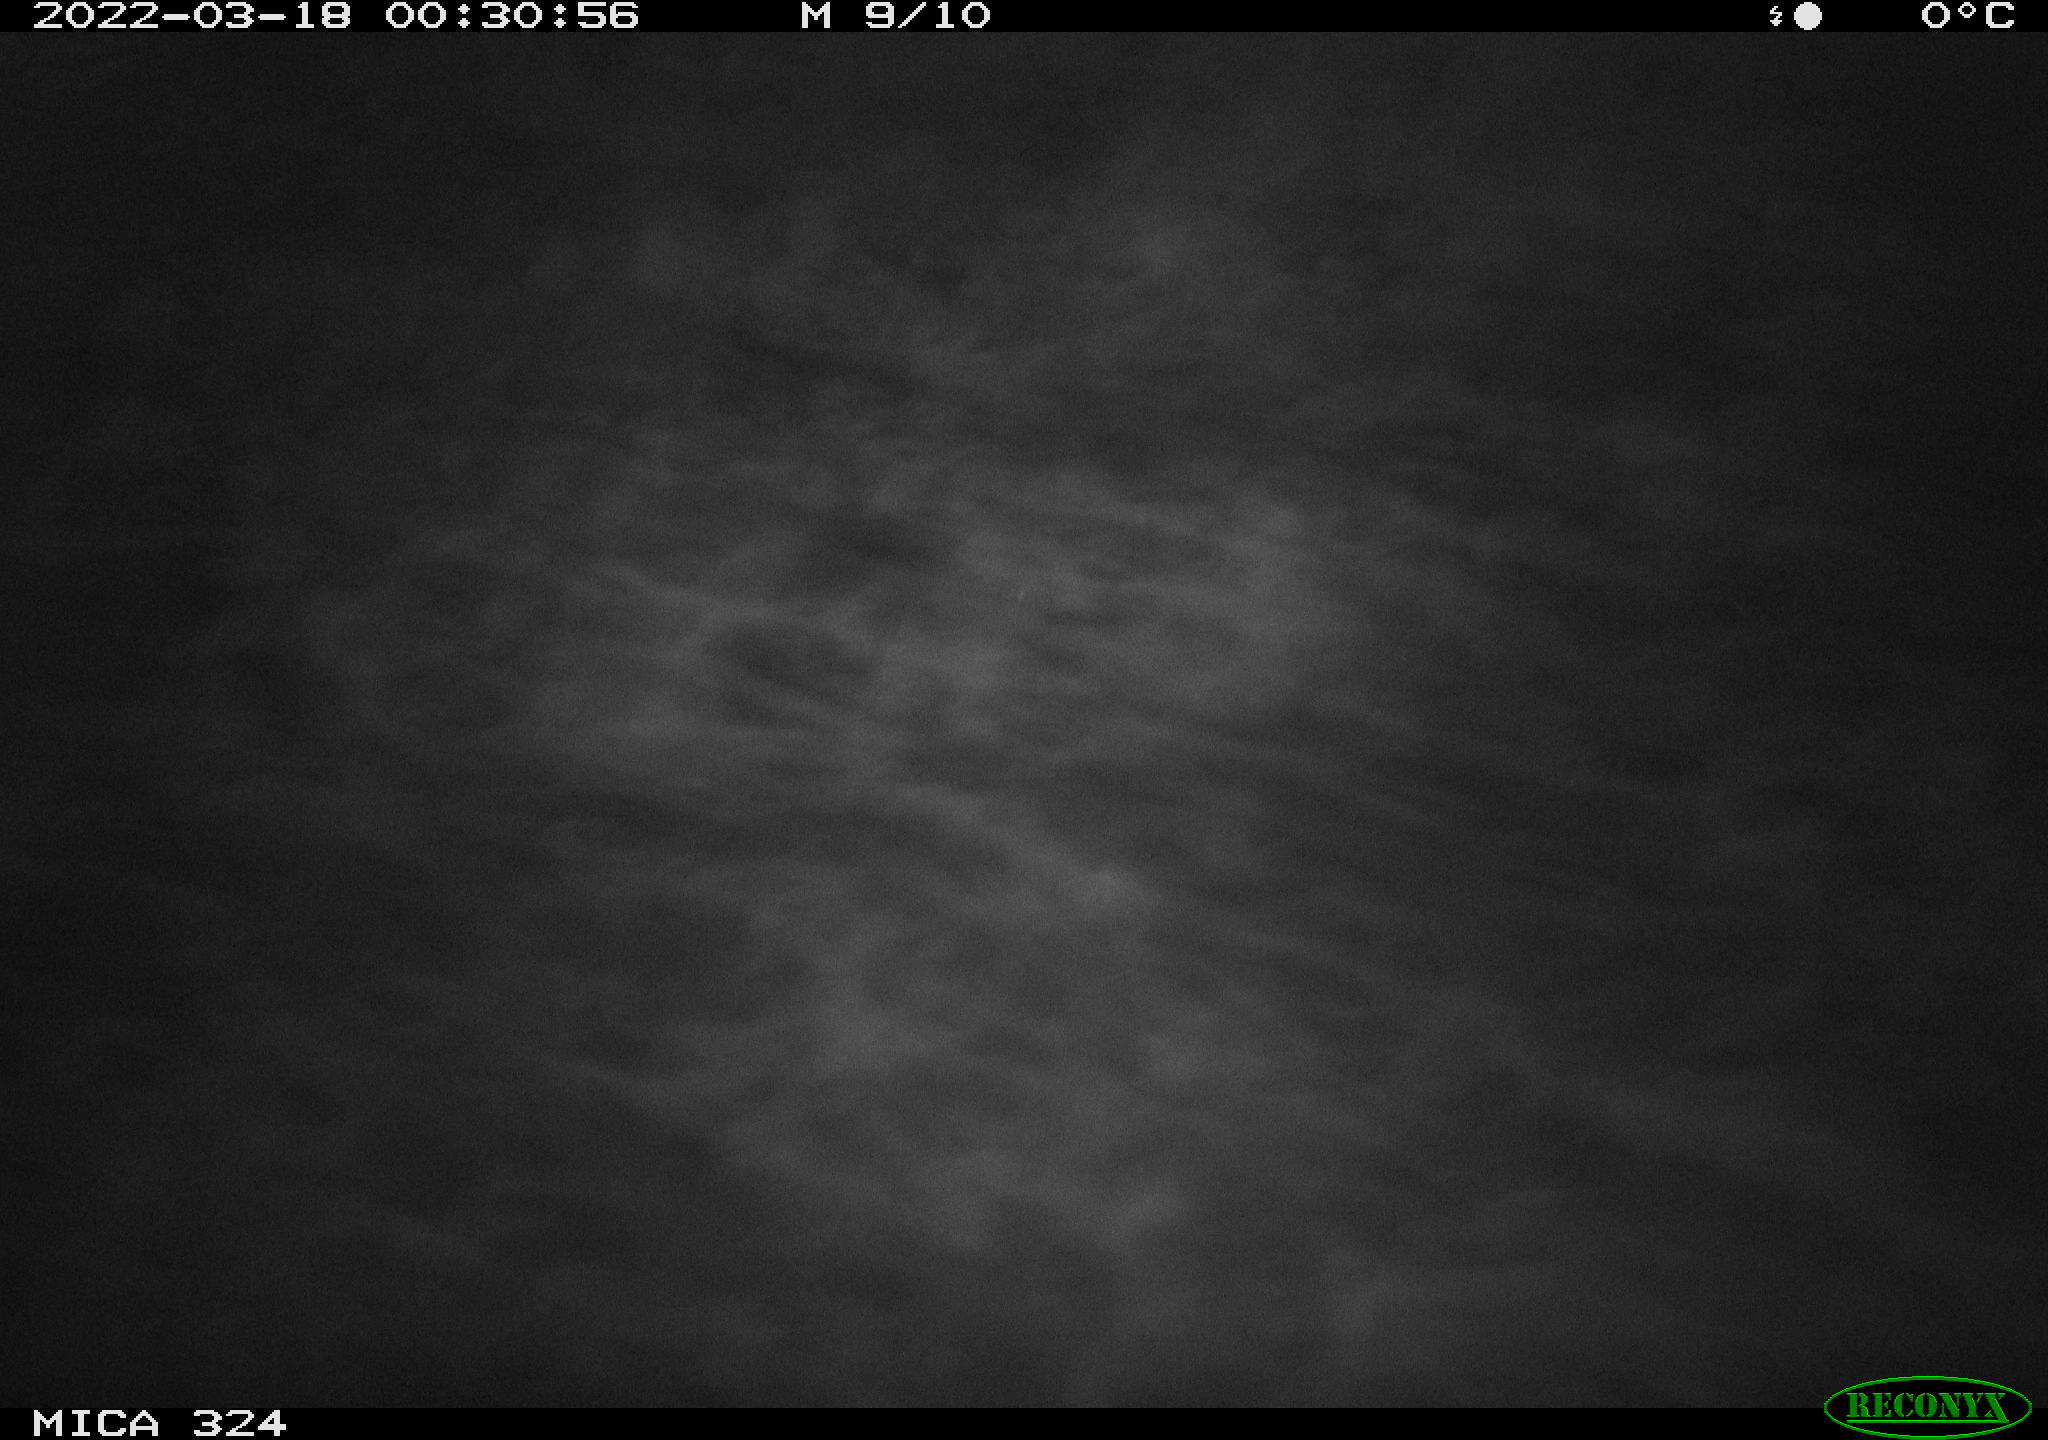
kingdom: Animalia
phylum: Chordata
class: Mammalia
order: Rodentia
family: Cricetidae
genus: Ondatra
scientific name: Ondatra zibethicus
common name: Muskrat
